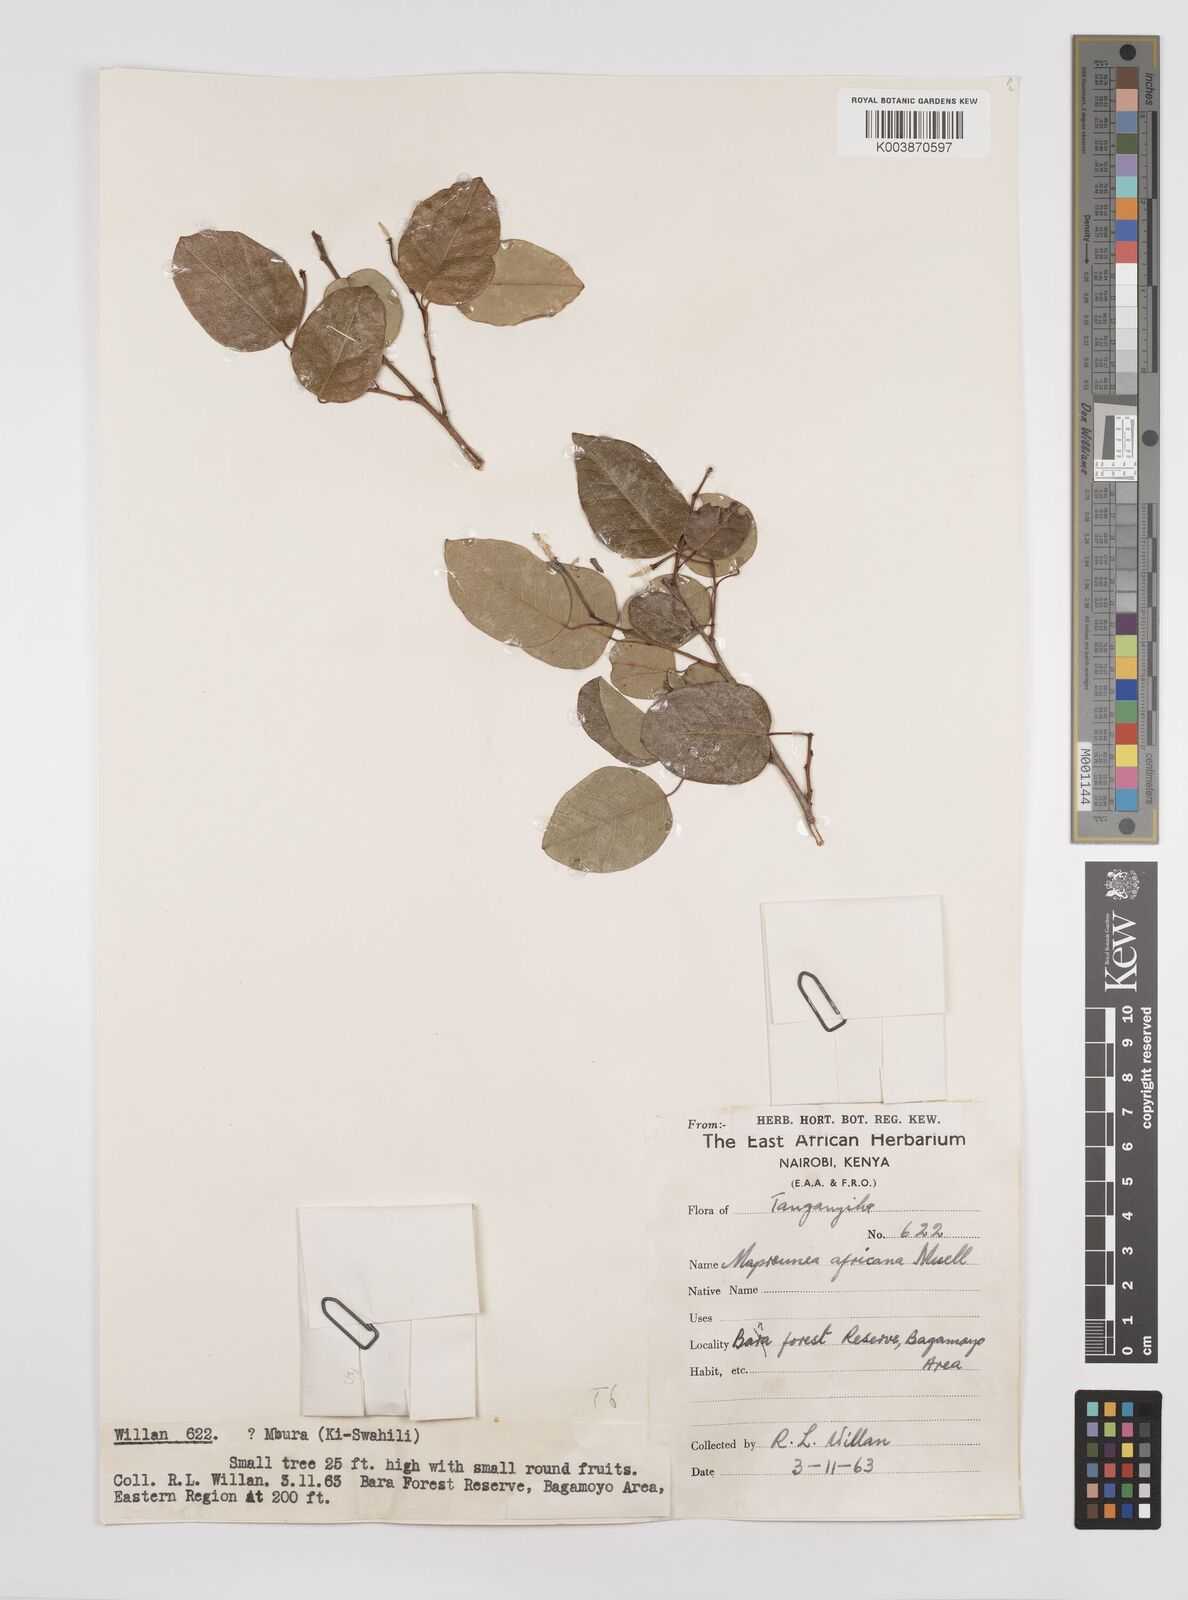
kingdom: Plantae
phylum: Tracheophyta
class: Magnoliopsida
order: Malpighiales
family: Euphorbiaceae
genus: Maprounea
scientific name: Maprounea africana
